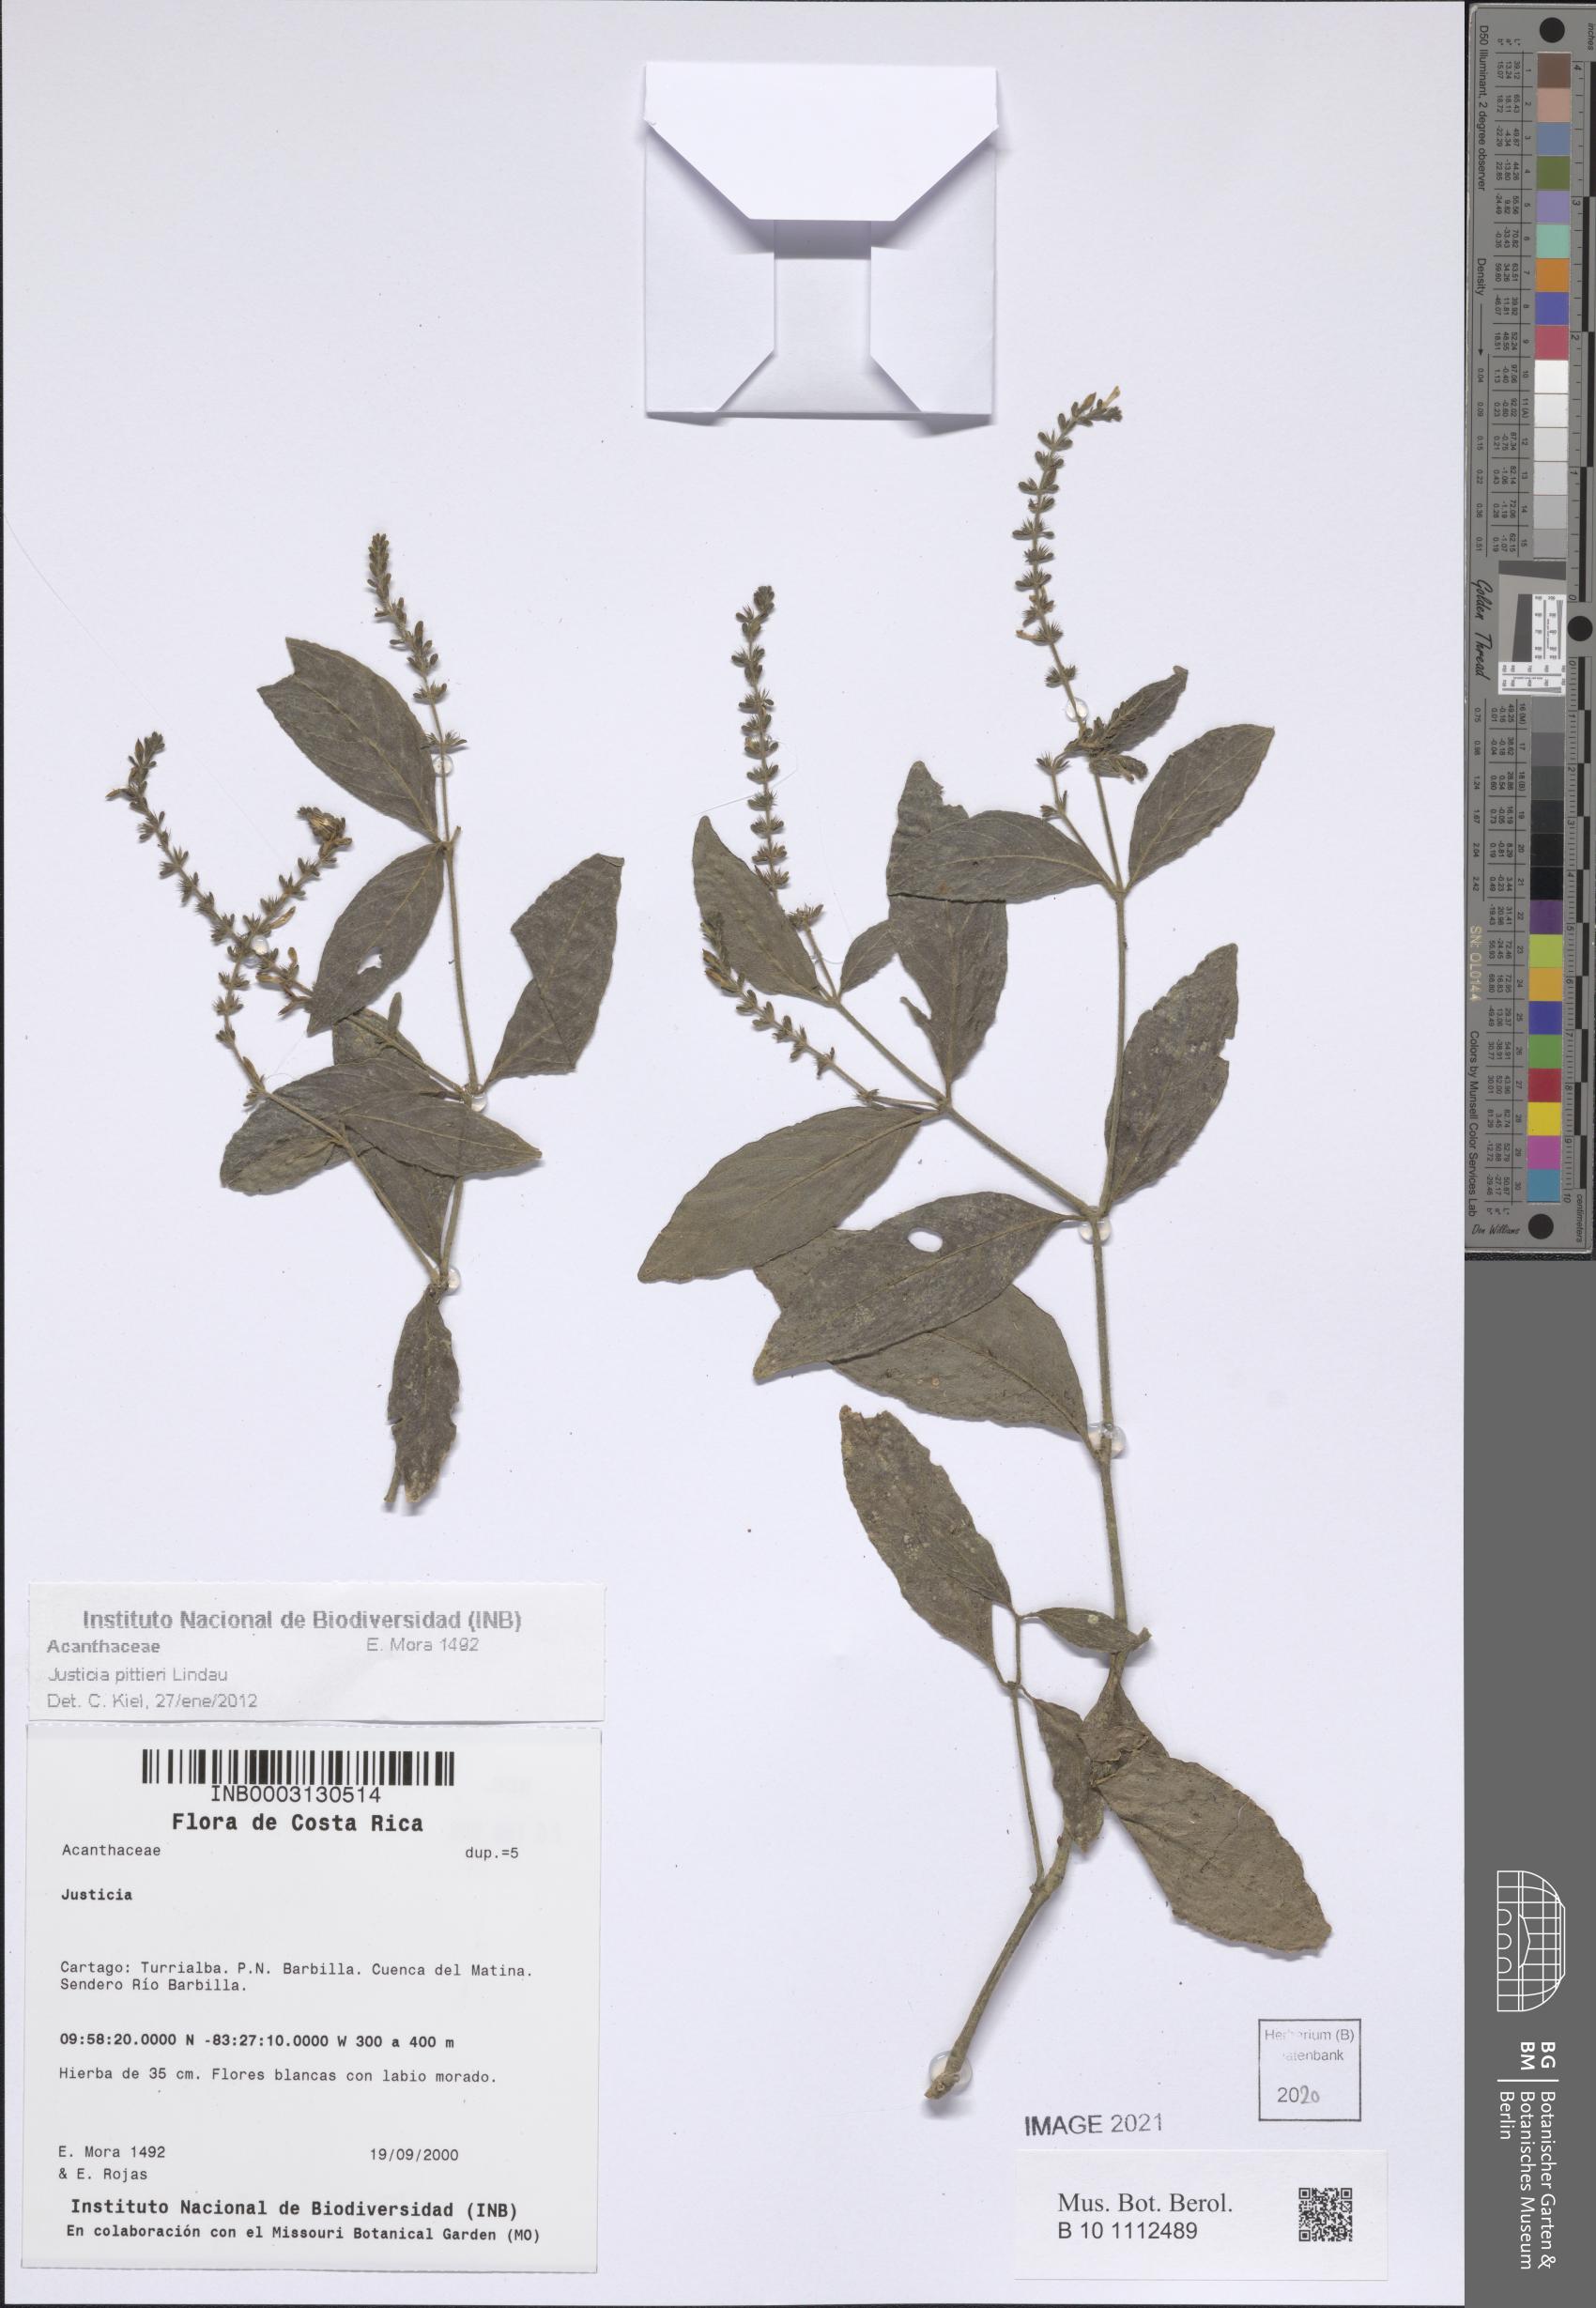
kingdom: Plantae
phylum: Tracheophyta
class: Magnoliopsida
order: Lamiales
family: Acanthaceae
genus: Justicia
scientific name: Justicia pittieri
